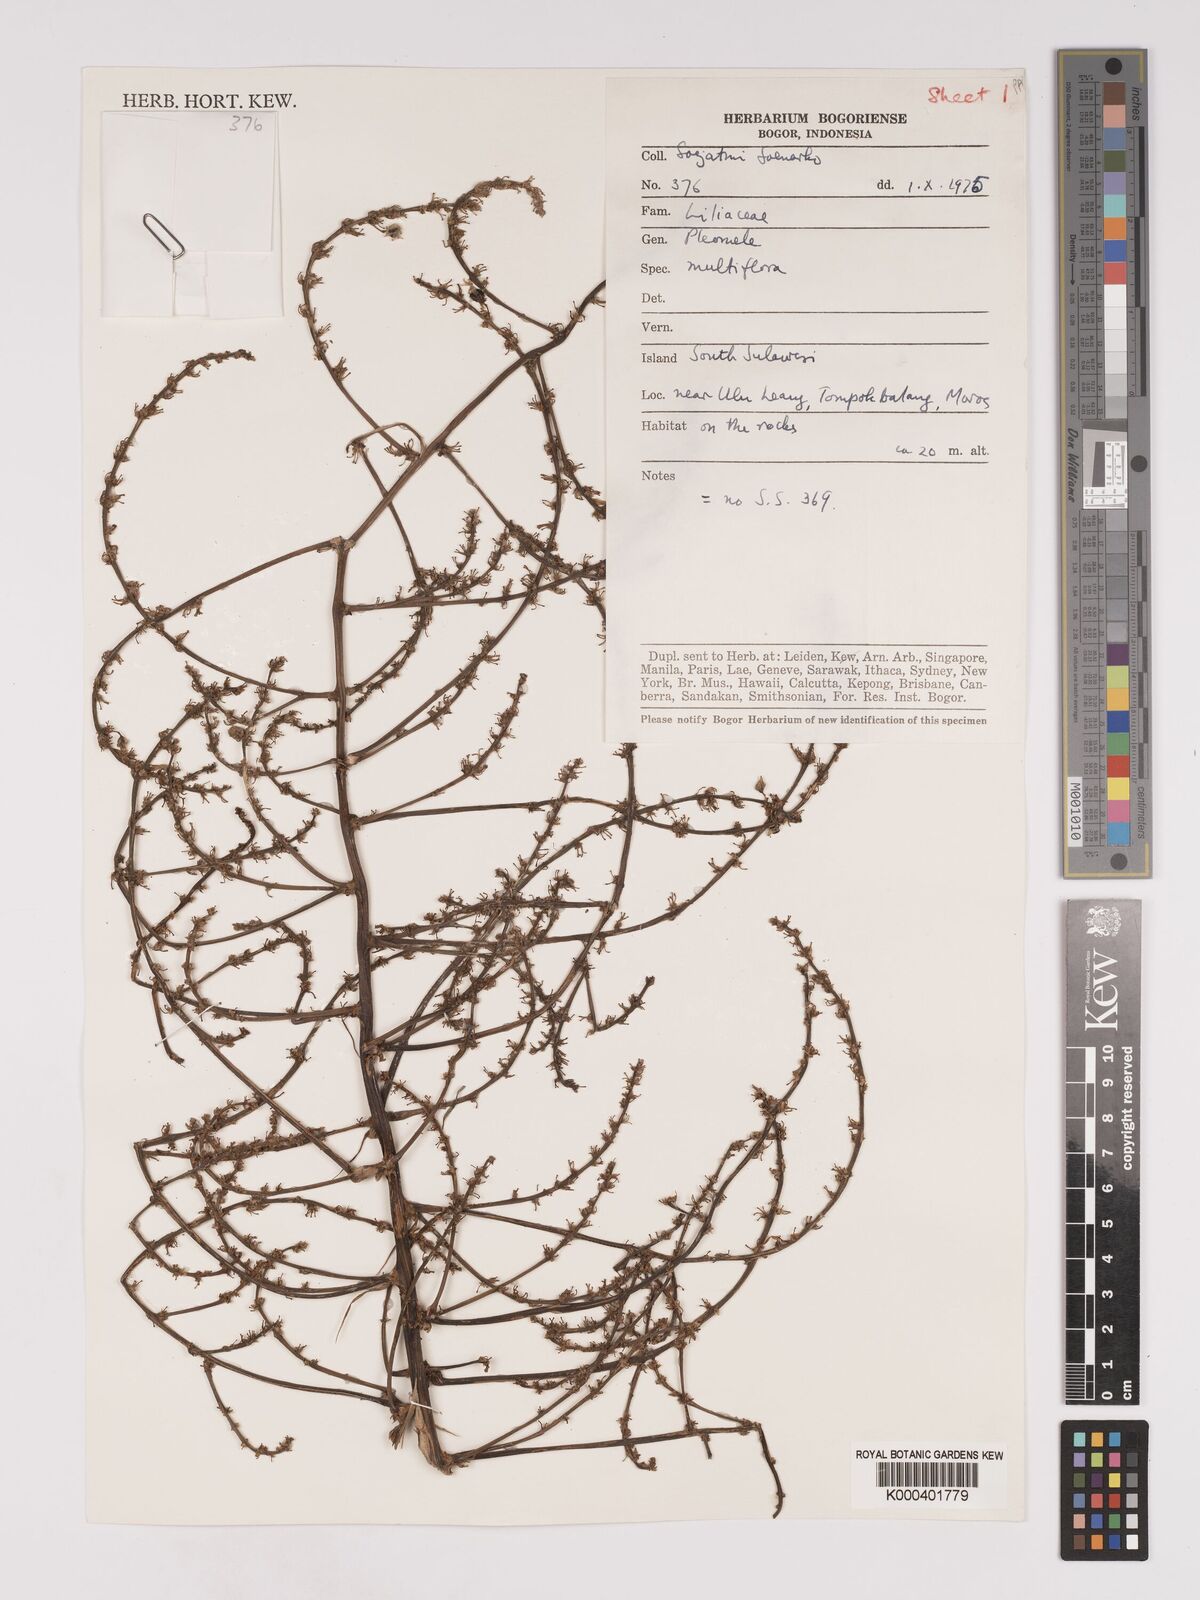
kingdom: Plantae
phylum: Tracheophyta
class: Liliopsida
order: Asparagales
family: Asparagaceae
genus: Dracaena
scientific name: Dracaena multiflora
